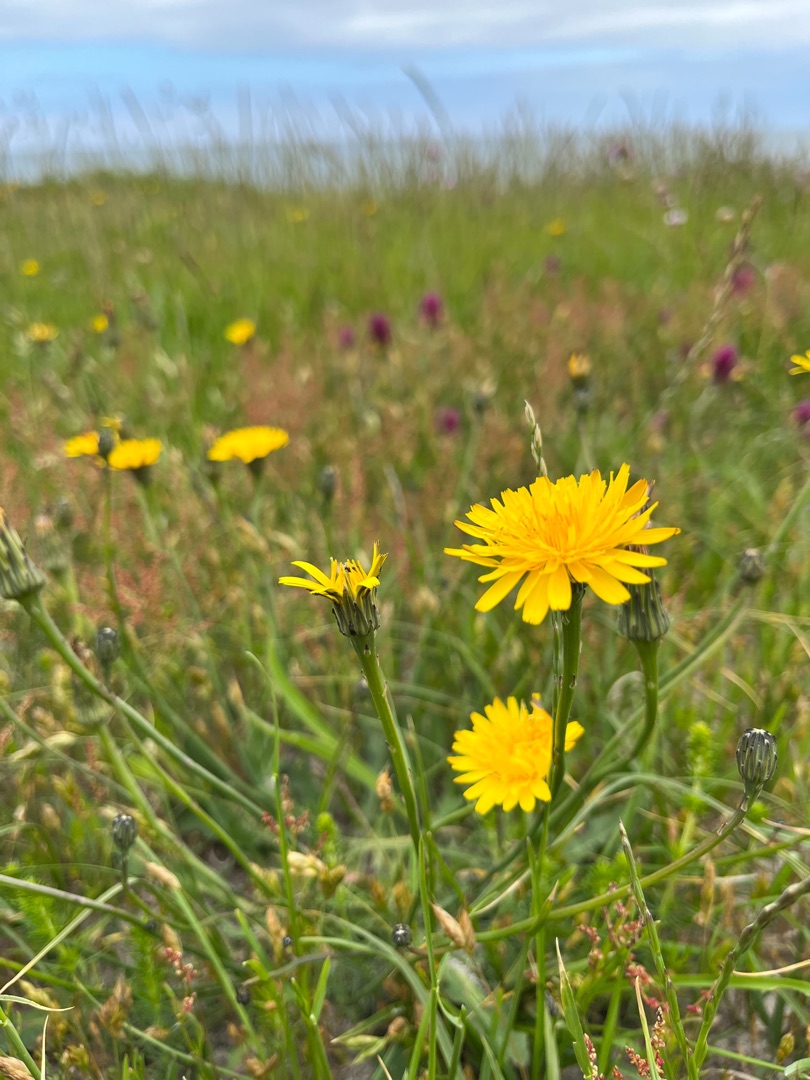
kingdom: Plantae
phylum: Tracheophyta
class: Magnoliopsida
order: Asterales
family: Asteraceae
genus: Hypochaeris
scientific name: Hypochaeris radicata
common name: Almindelig kongepen
